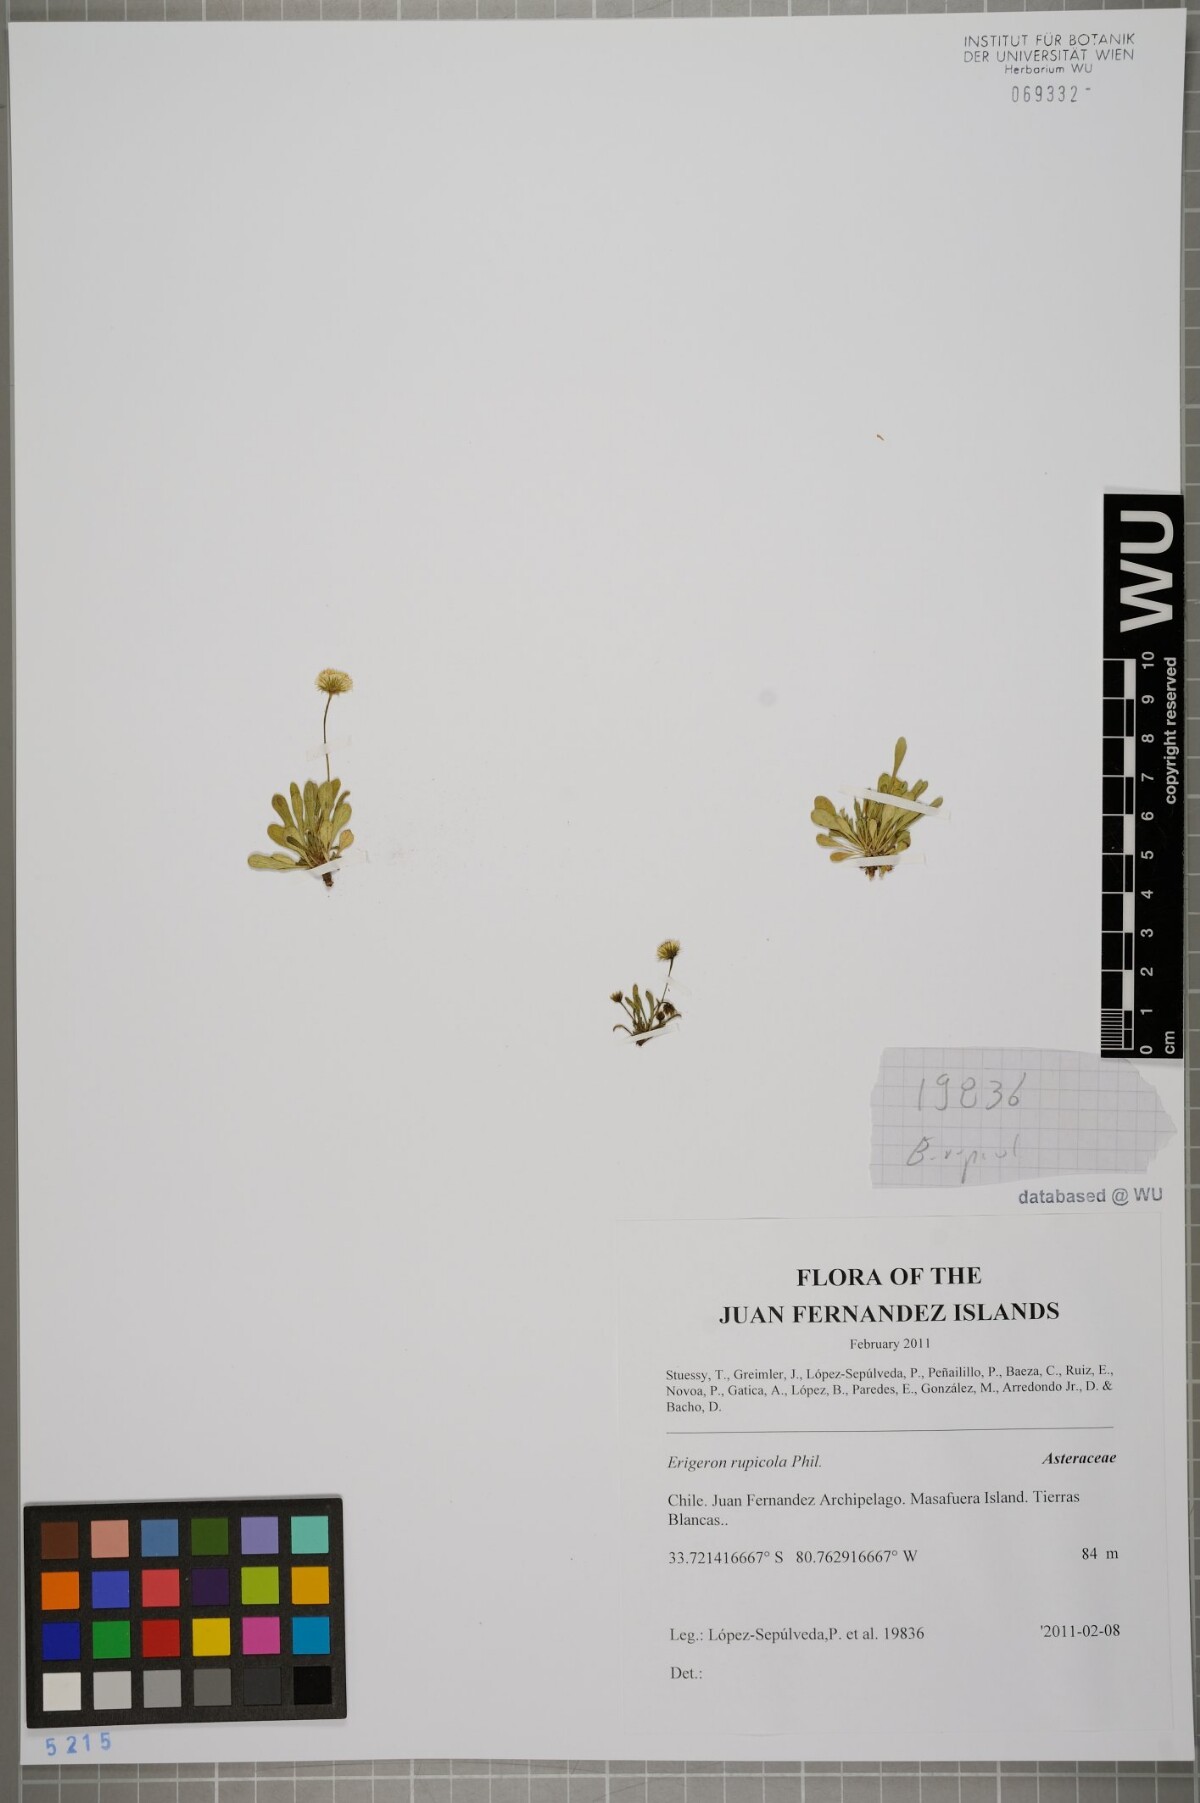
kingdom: Plantae
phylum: Tracheophyta
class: Magnoliopsida
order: Asterales
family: Asteraceae
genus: Erigeron
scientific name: Erigeron rupicola
